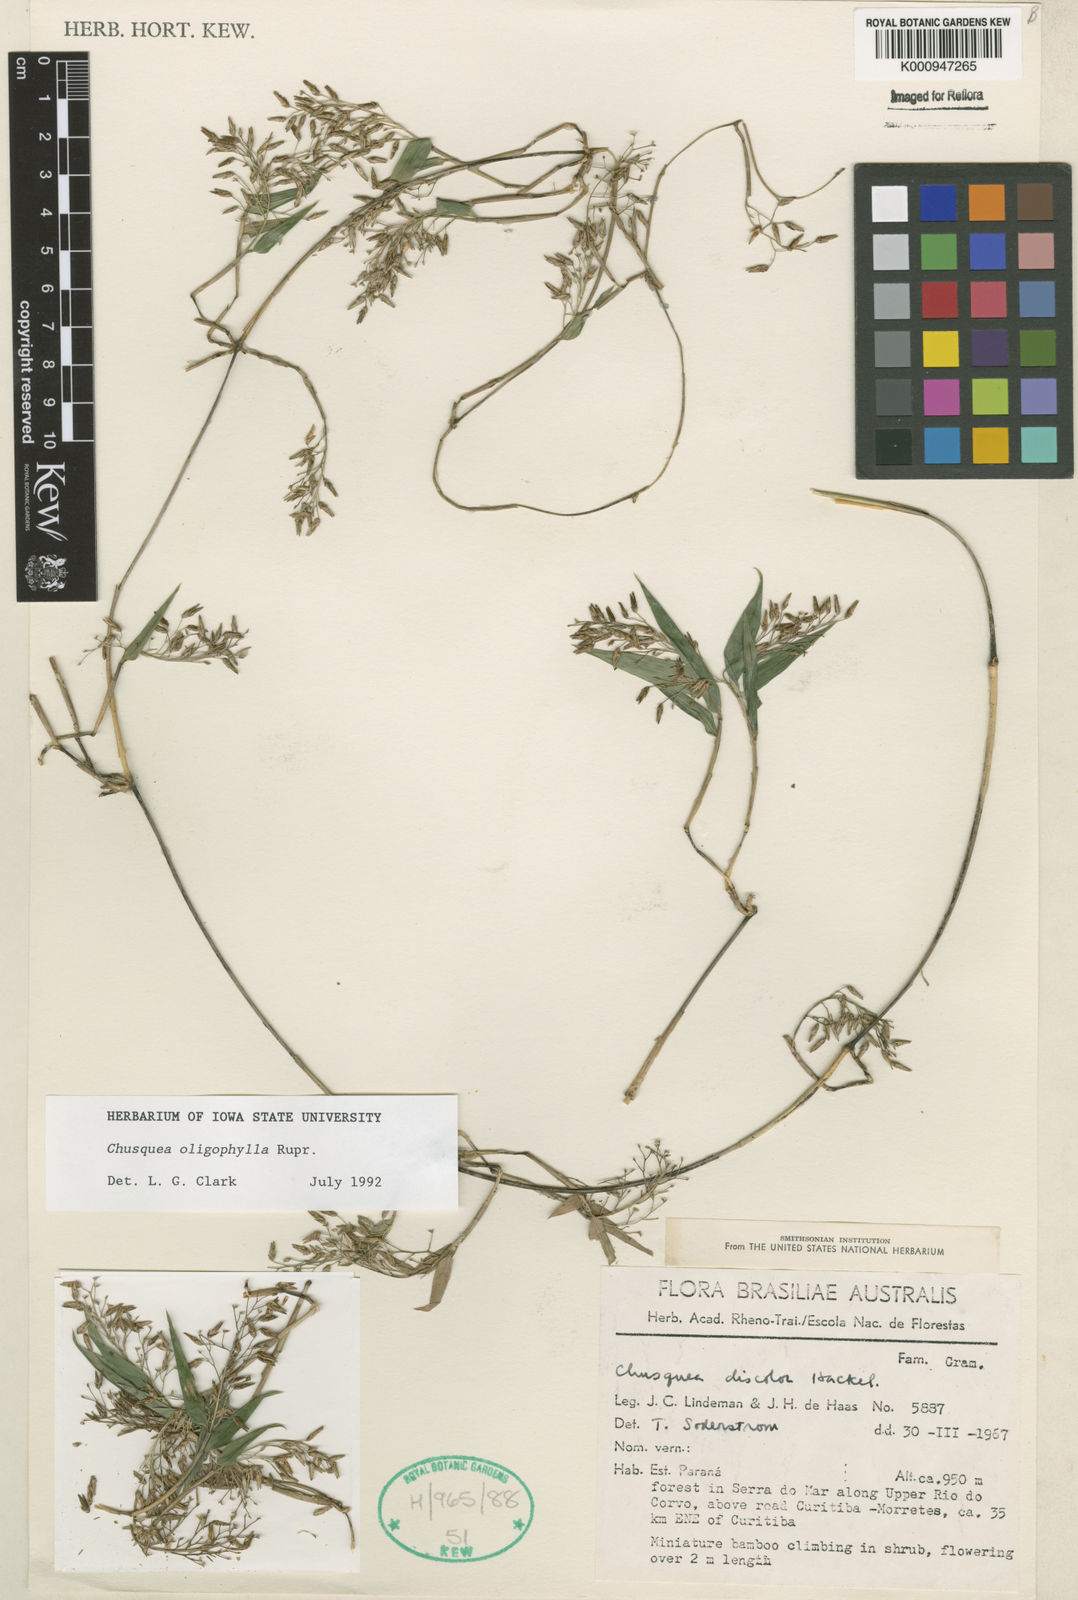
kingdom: Plantae
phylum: Tracheophyta
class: Liliopsida
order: Poales
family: Poaceae
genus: Chusquea
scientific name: Chusquea oligophylla
